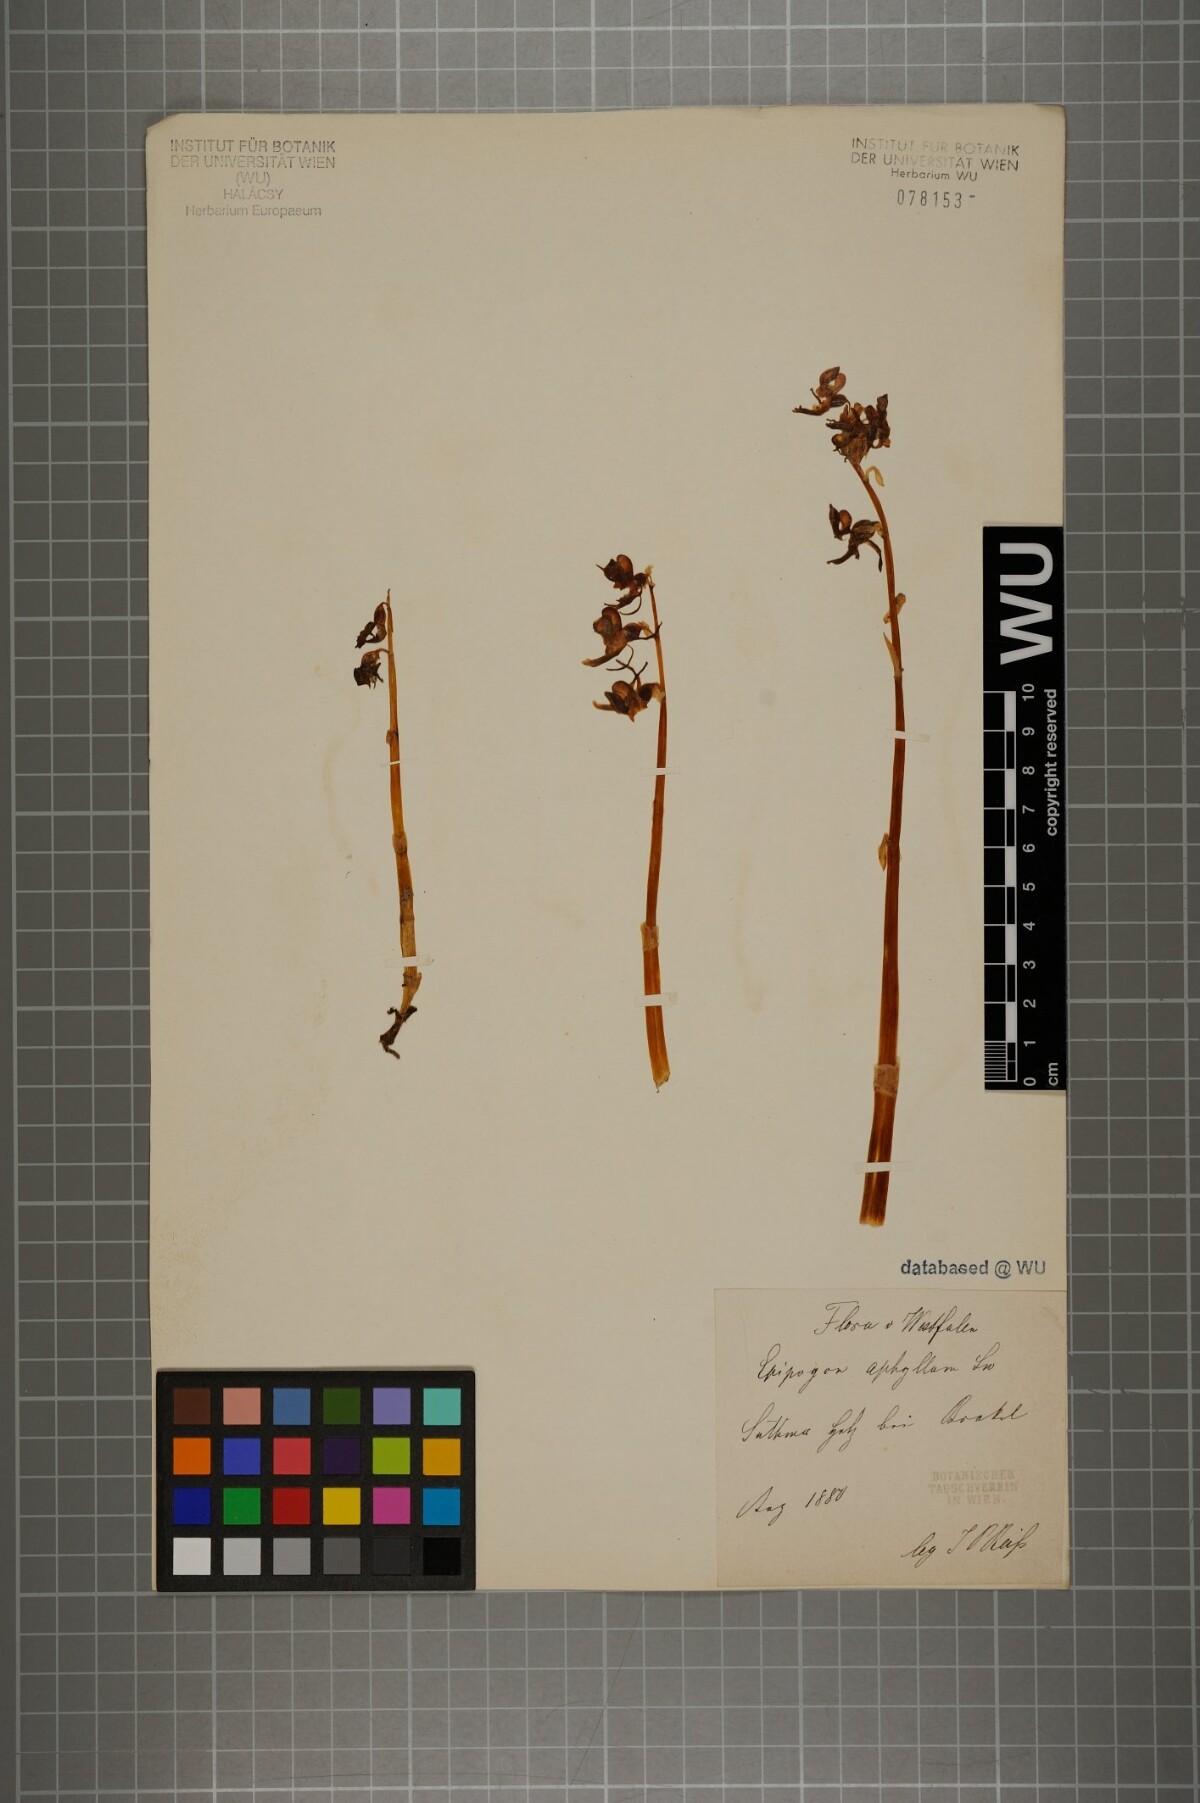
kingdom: Plantae
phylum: Tracheophyta
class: Liliopsida
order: Asparagales
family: Orchidaceae
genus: Epipogium
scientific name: Epipogium aphyllum
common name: Ghost orchid
